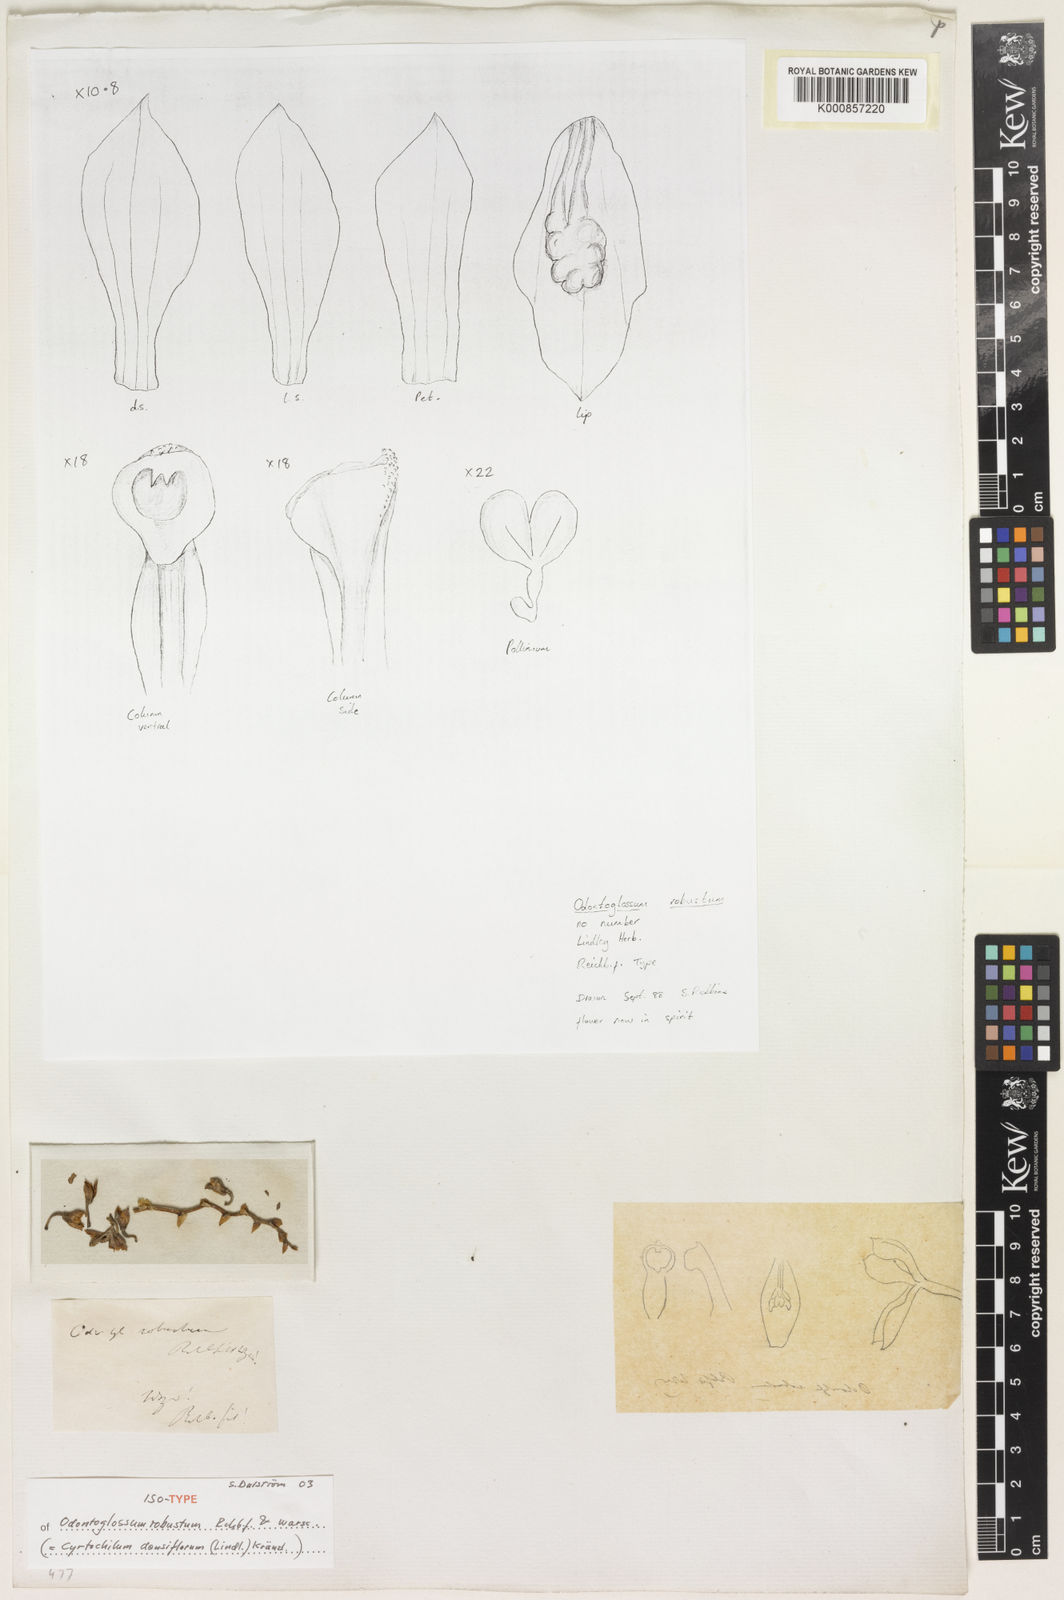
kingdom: Plantae
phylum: Tracheophyta
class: Liliopsida
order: Asparagales
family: Orchidaceae
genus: Cyrtochilum
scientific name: Cyrtochilum densiflorum
